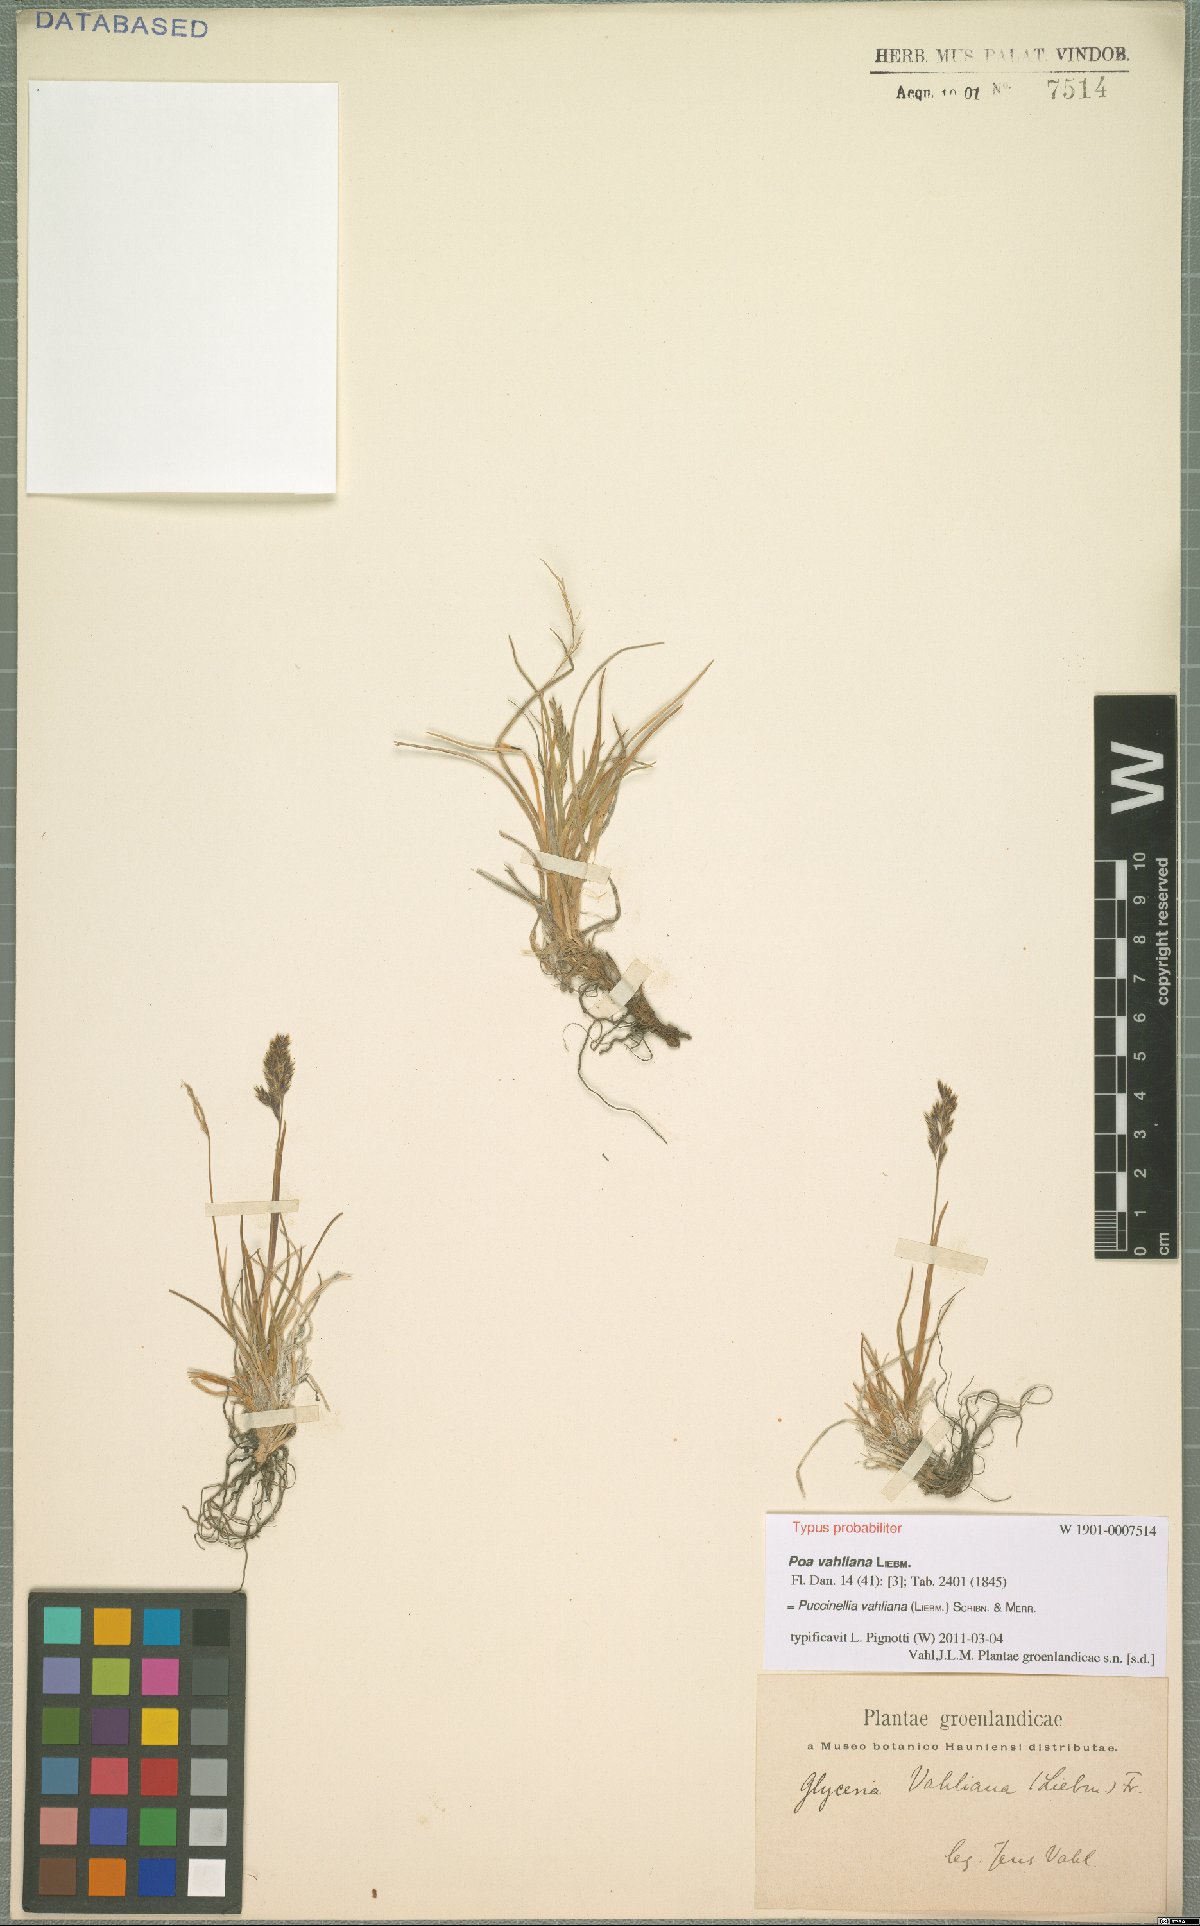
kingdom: Plantae
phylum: Tracheophyta
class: Liliopsida
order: Poales
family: Poaceae
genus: Puccinellia
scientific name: Puccinellia vahliana
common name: Vahl's alkaligrass
